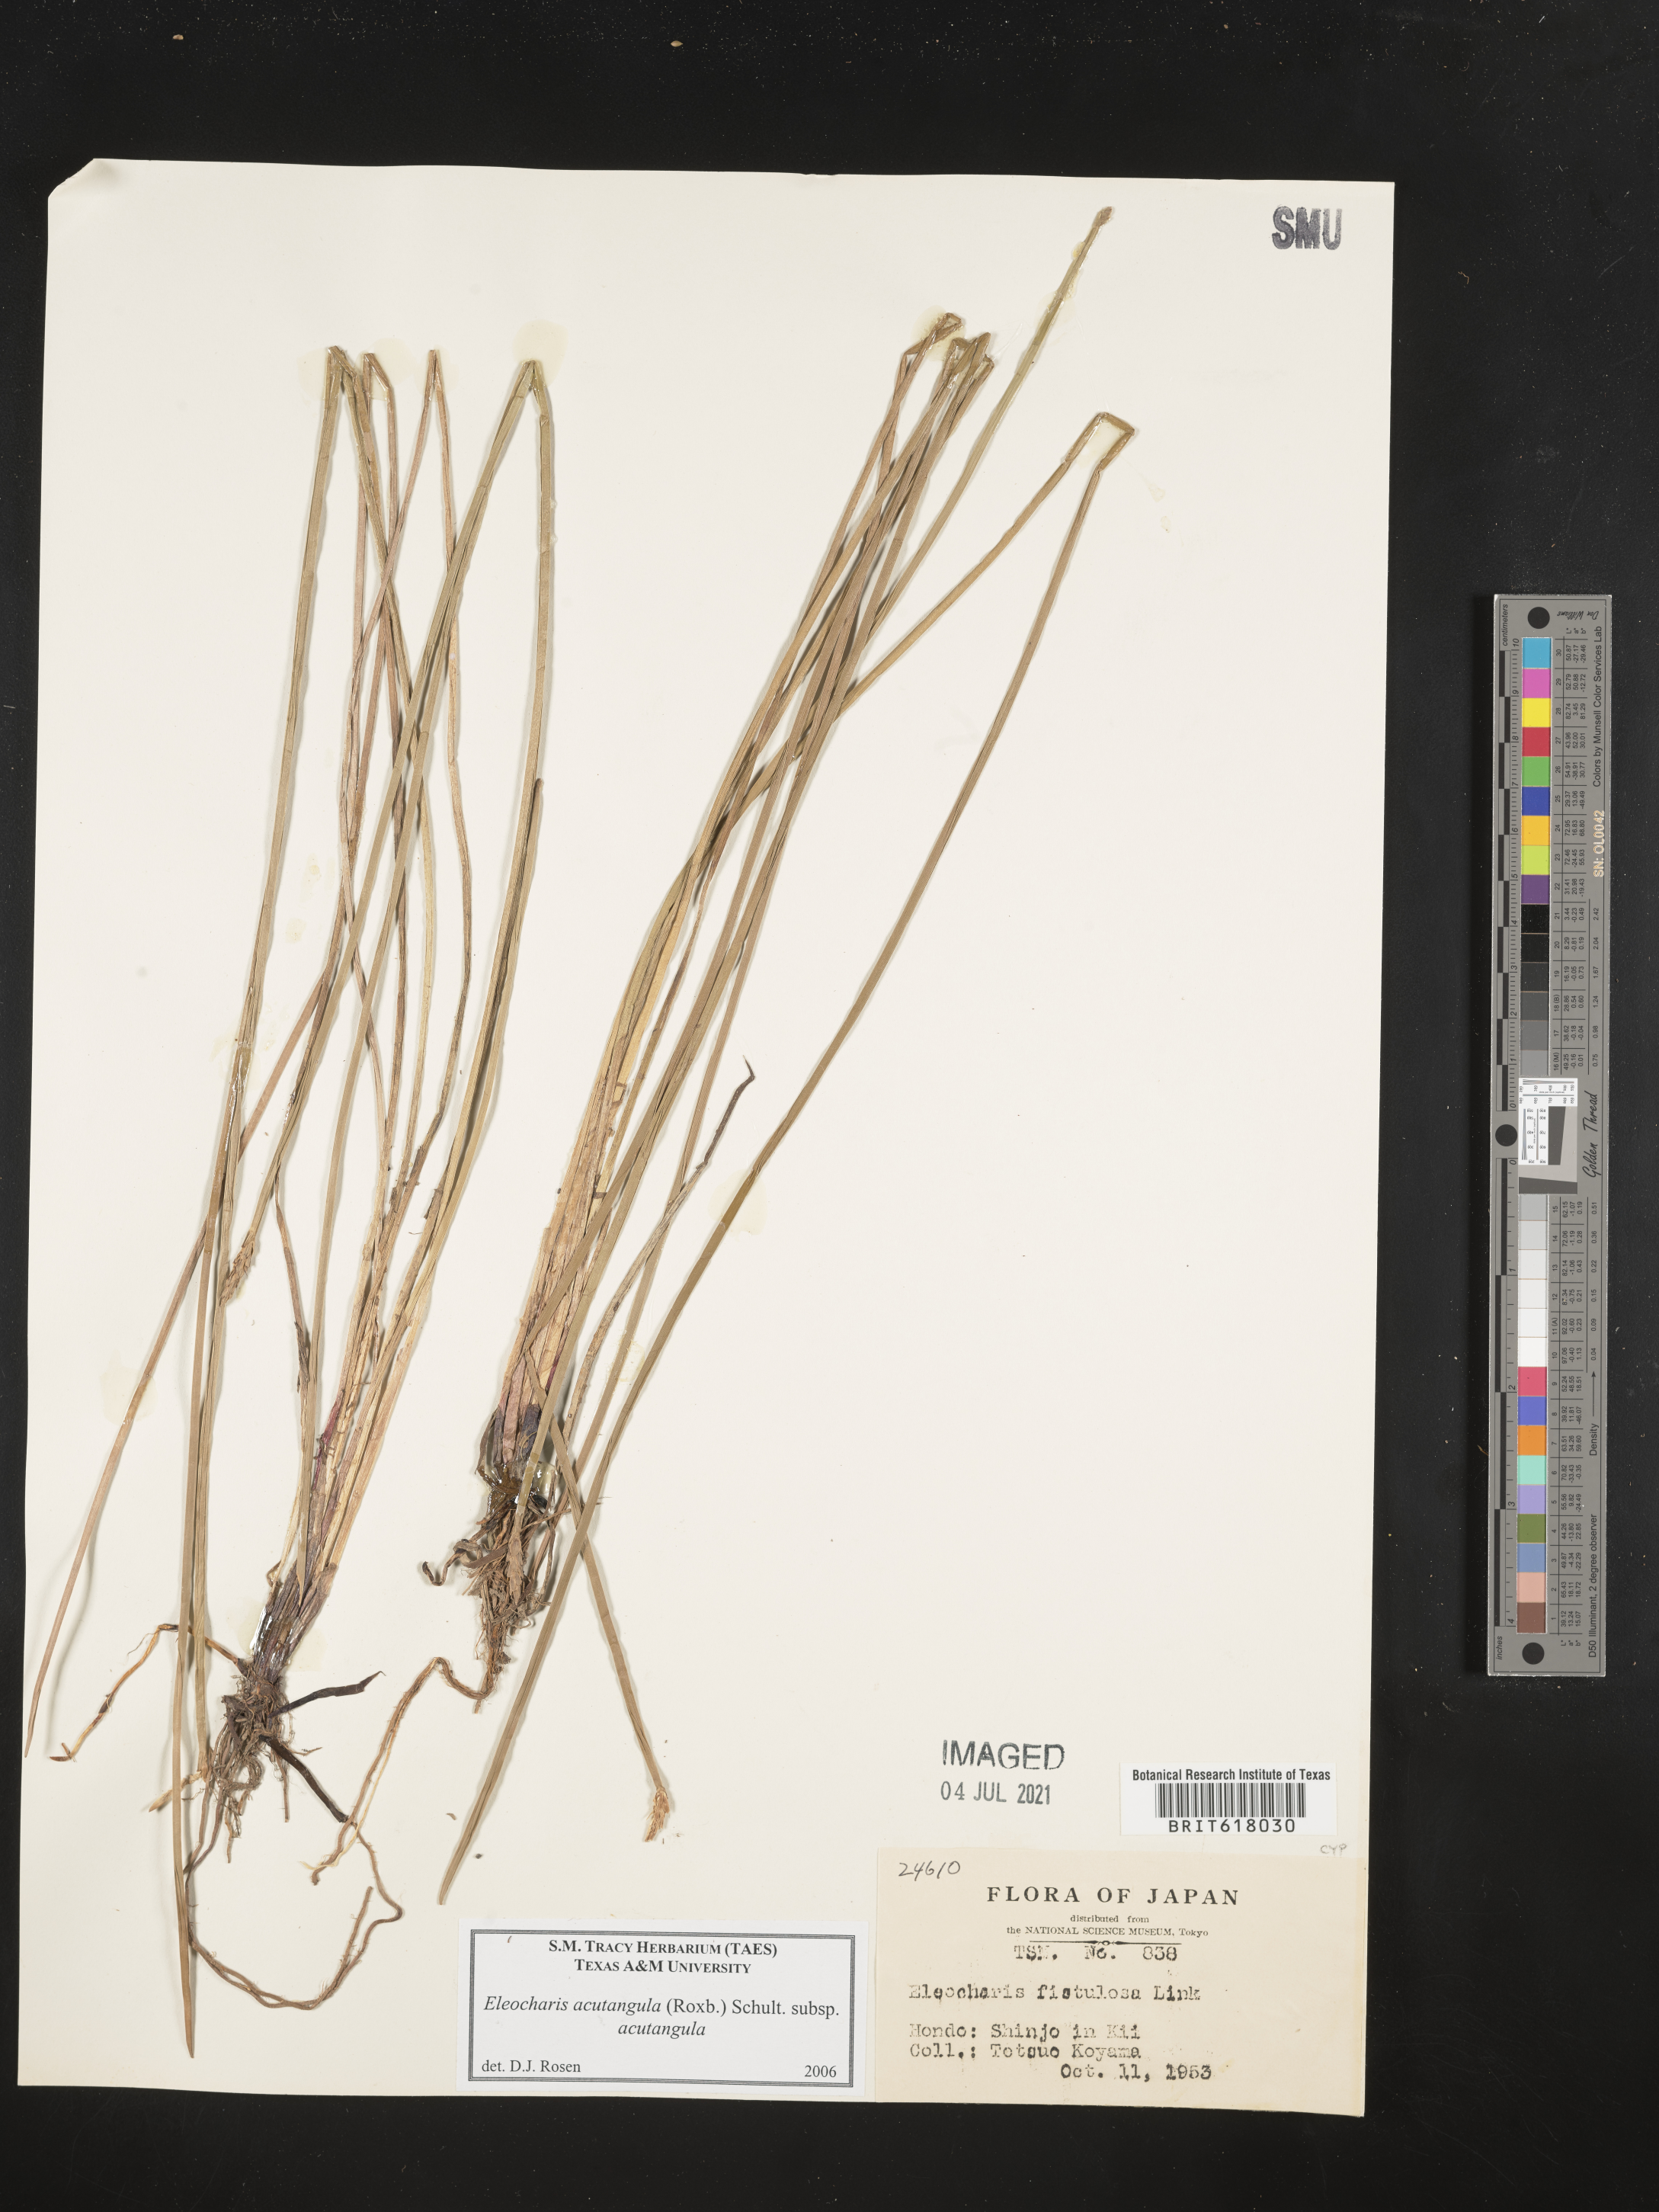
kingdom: Plantae
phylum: Tracheophyta
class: Liliopsida
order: Poales
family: Cyperaceae
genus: Eleocharis
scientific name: Eleocharis acutangula
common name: Acute spikerush
